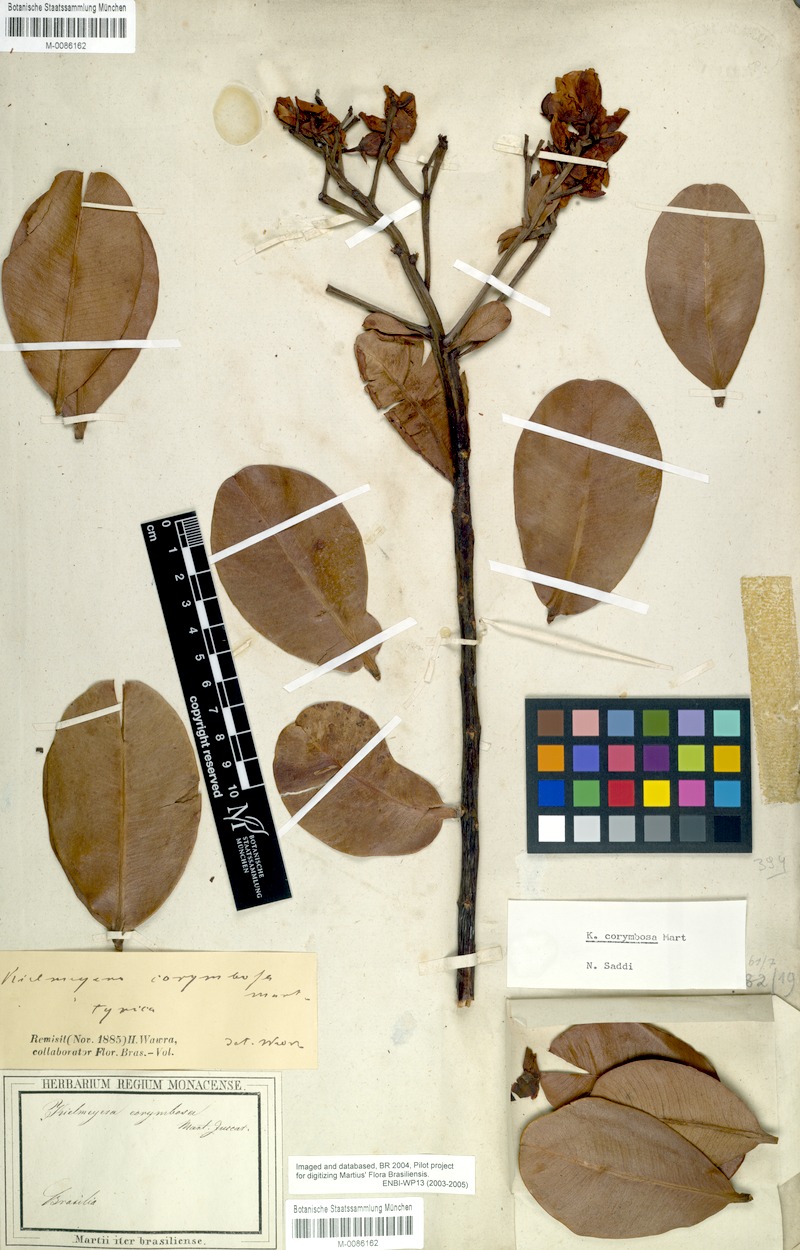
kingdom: Plantae
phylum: Tracheophyta
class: Magnoliopsida
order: Malpighiales
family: Calophyllaceae
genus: Kielmeyera
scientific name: Kielmeyera corymbosa
